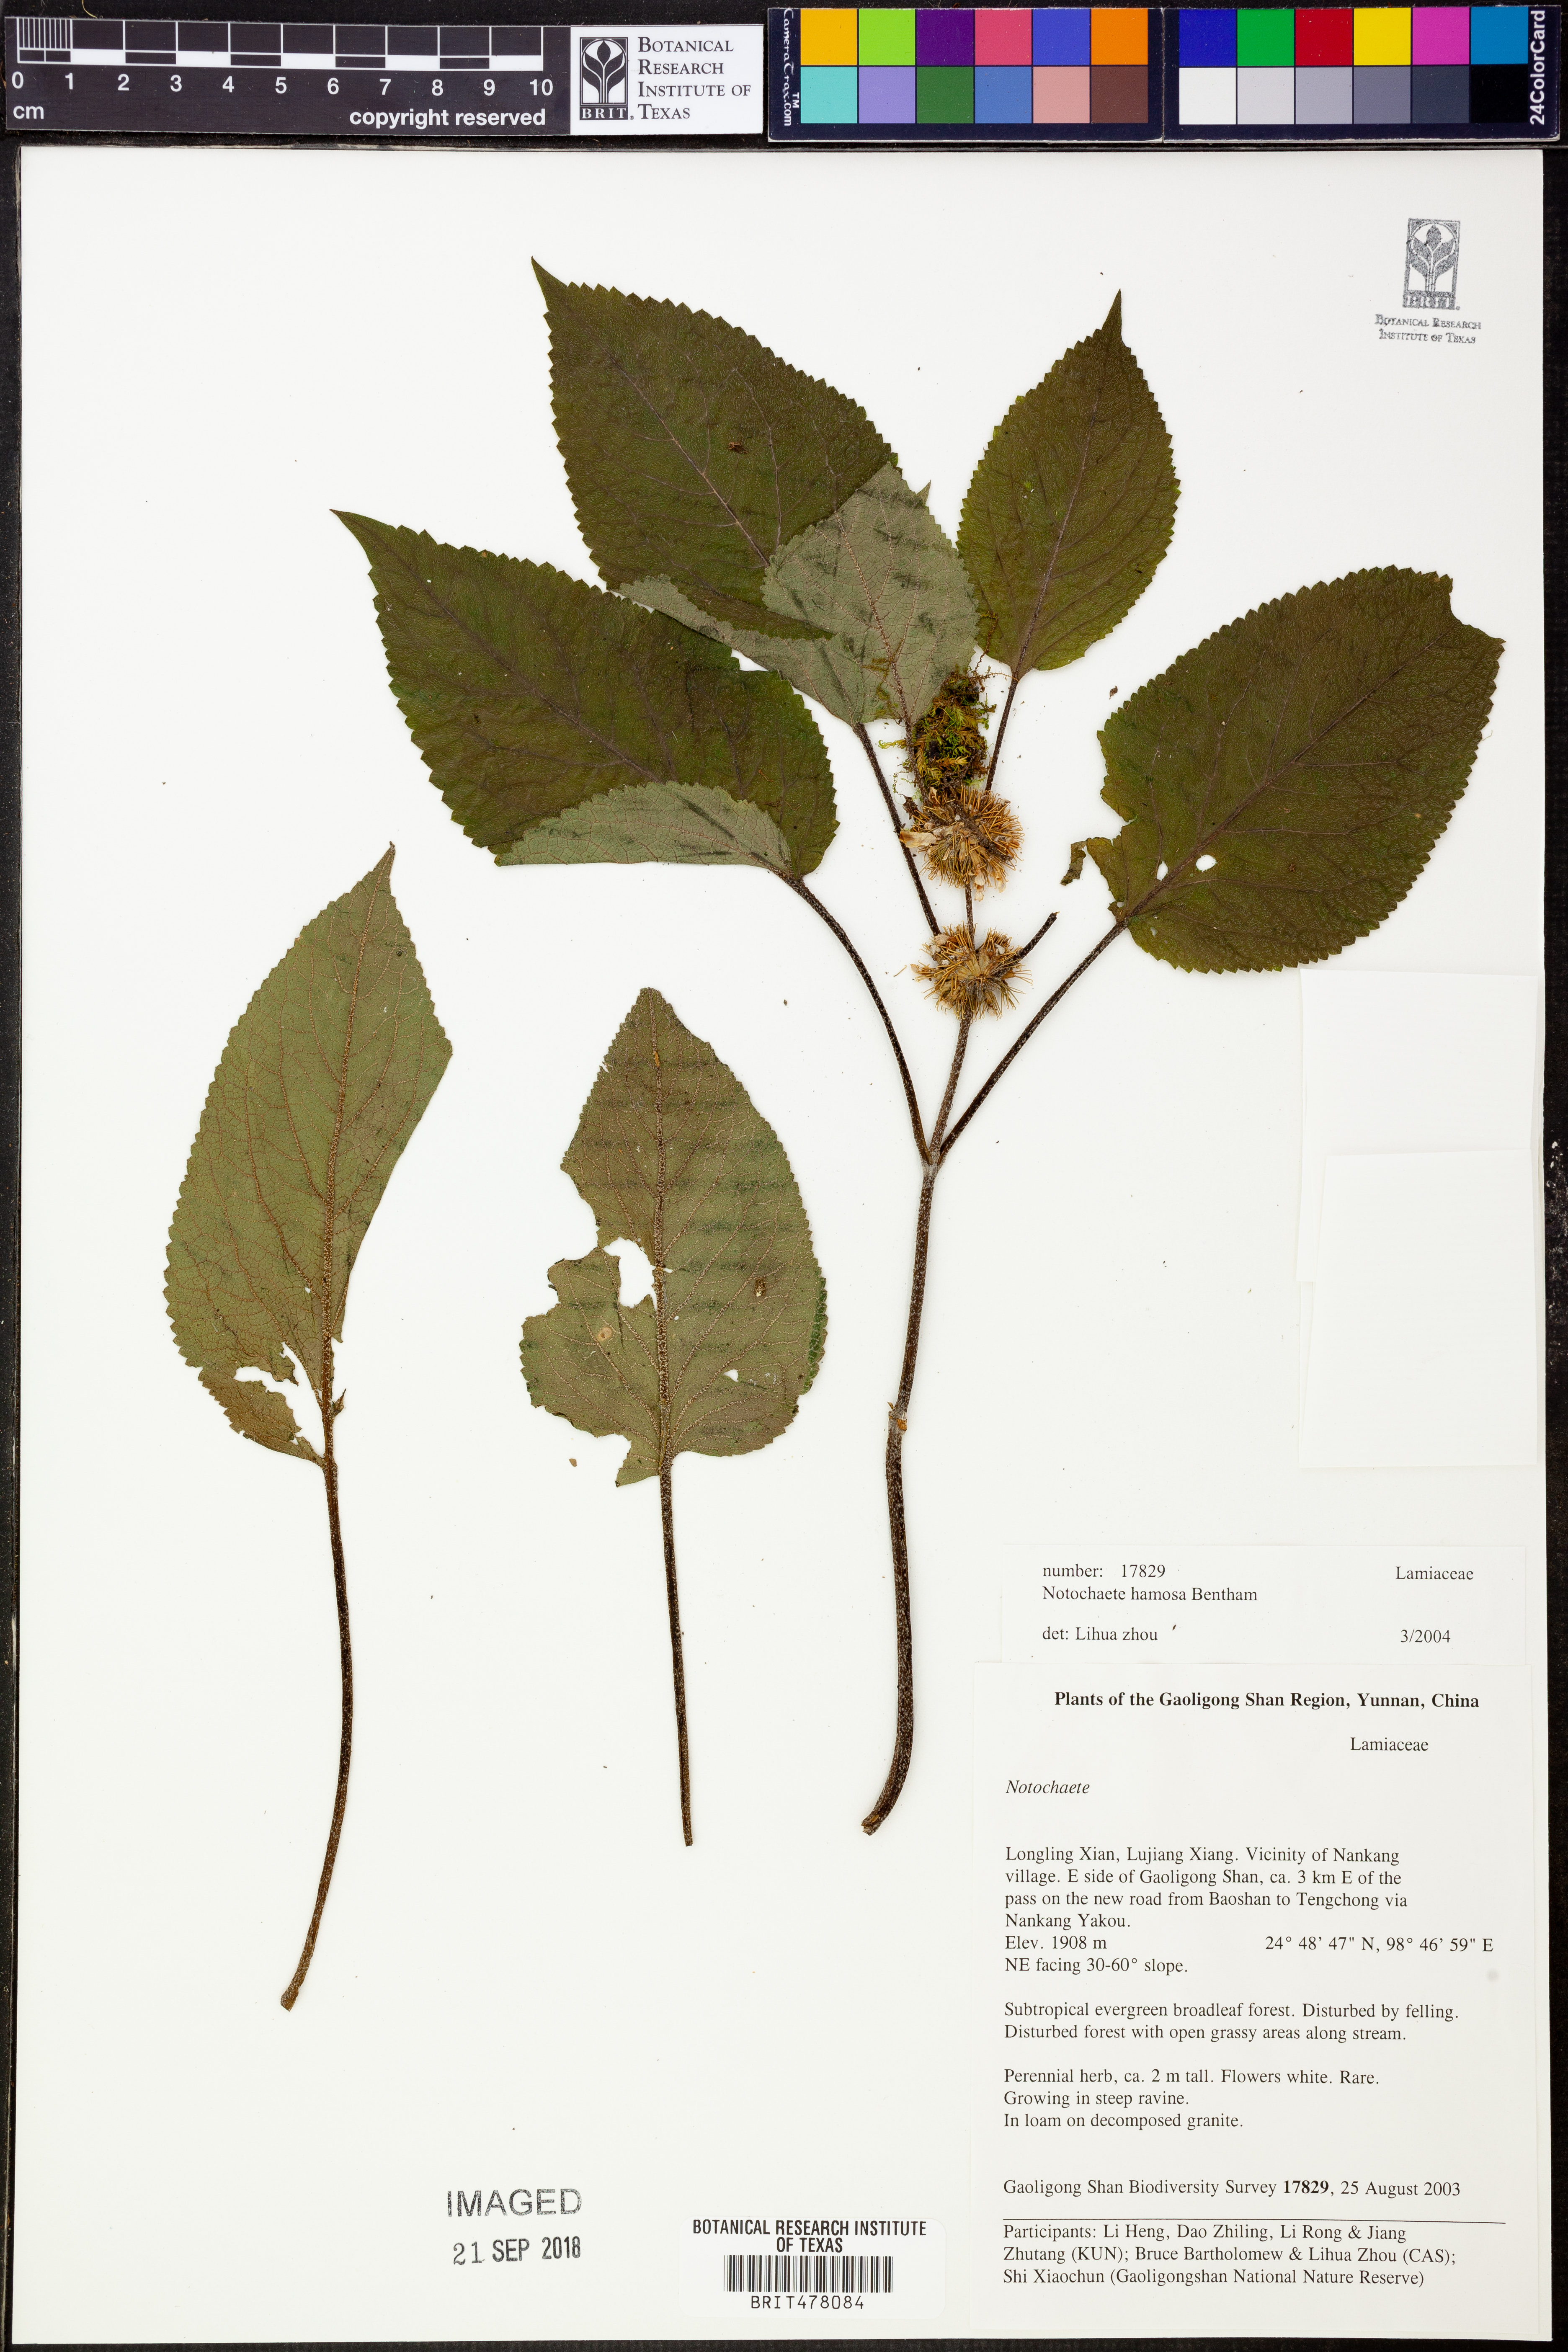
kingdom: Plantae
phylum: Tracheophyta
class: Magnoliopsida
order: Lamiales
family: Lamiaceae
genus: Phlomoides
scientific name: Phlomoides hamosa
